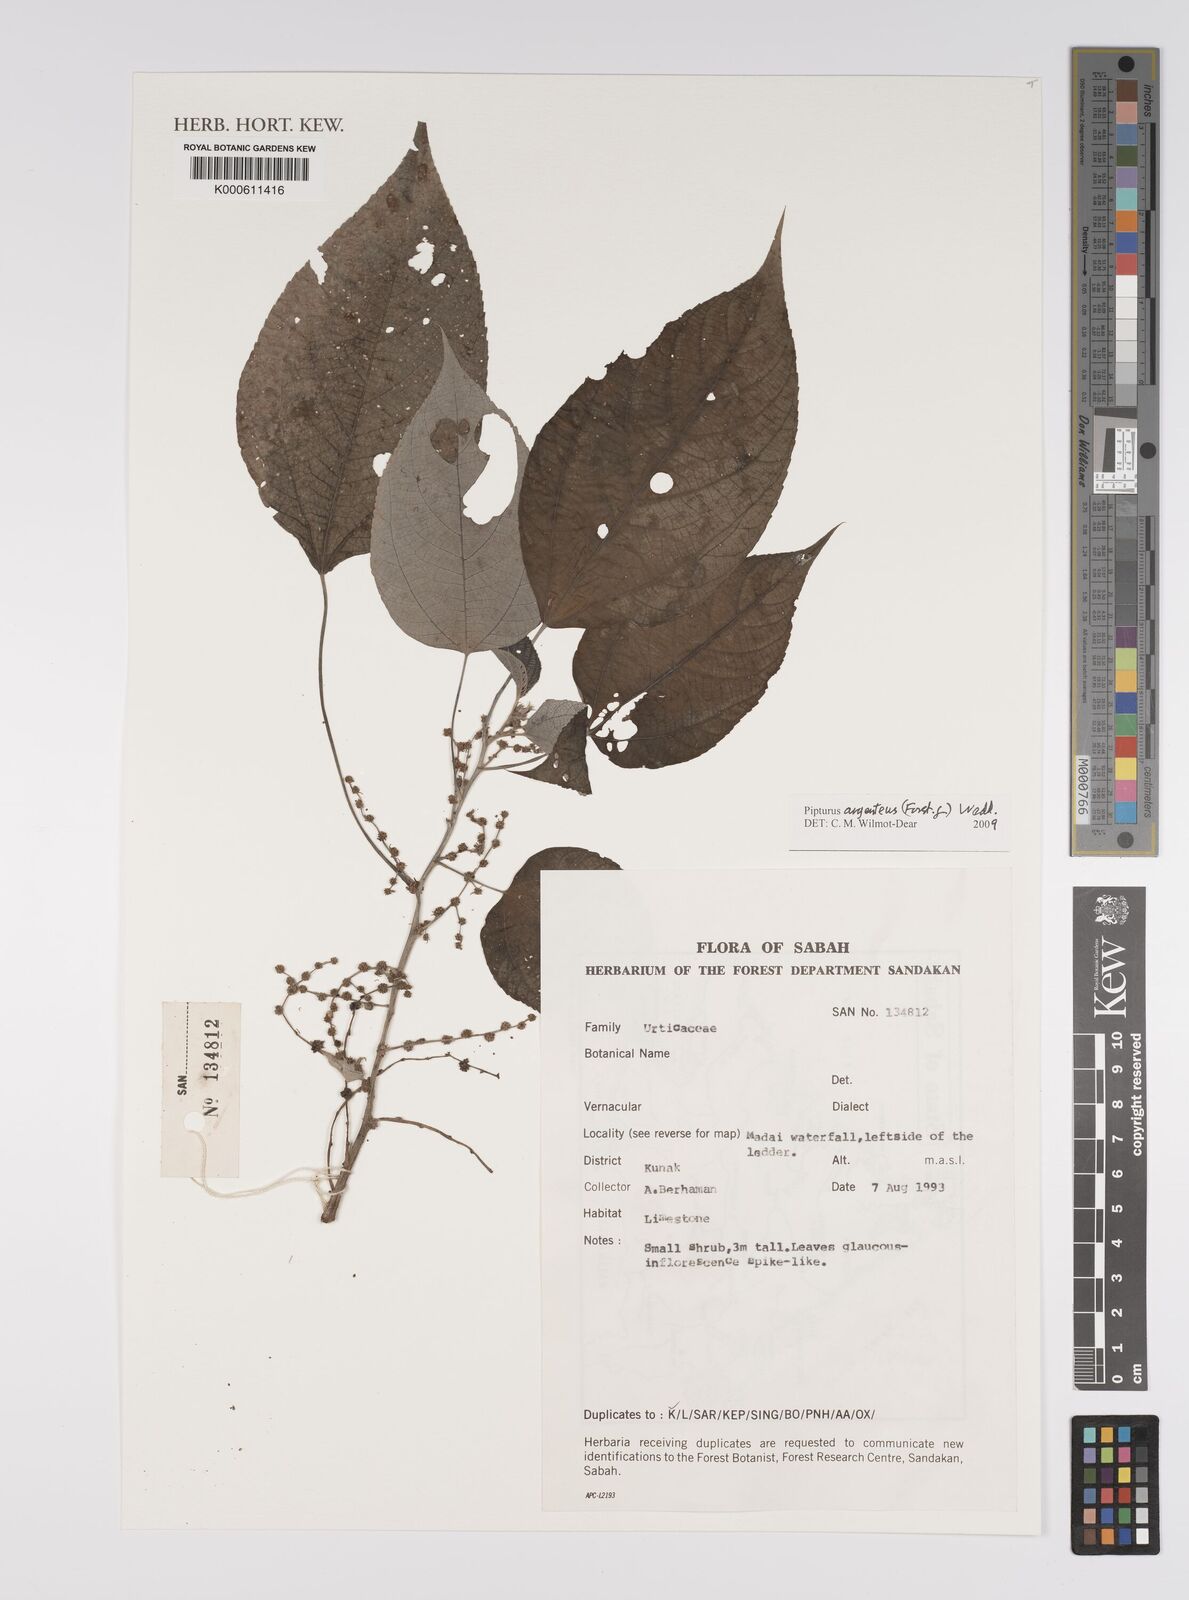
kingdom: Plantae
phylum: Tracheophyta
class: Magnoliopsida
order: Rosales
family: Urticaceae
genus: Pipturus
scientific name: Pipturus
